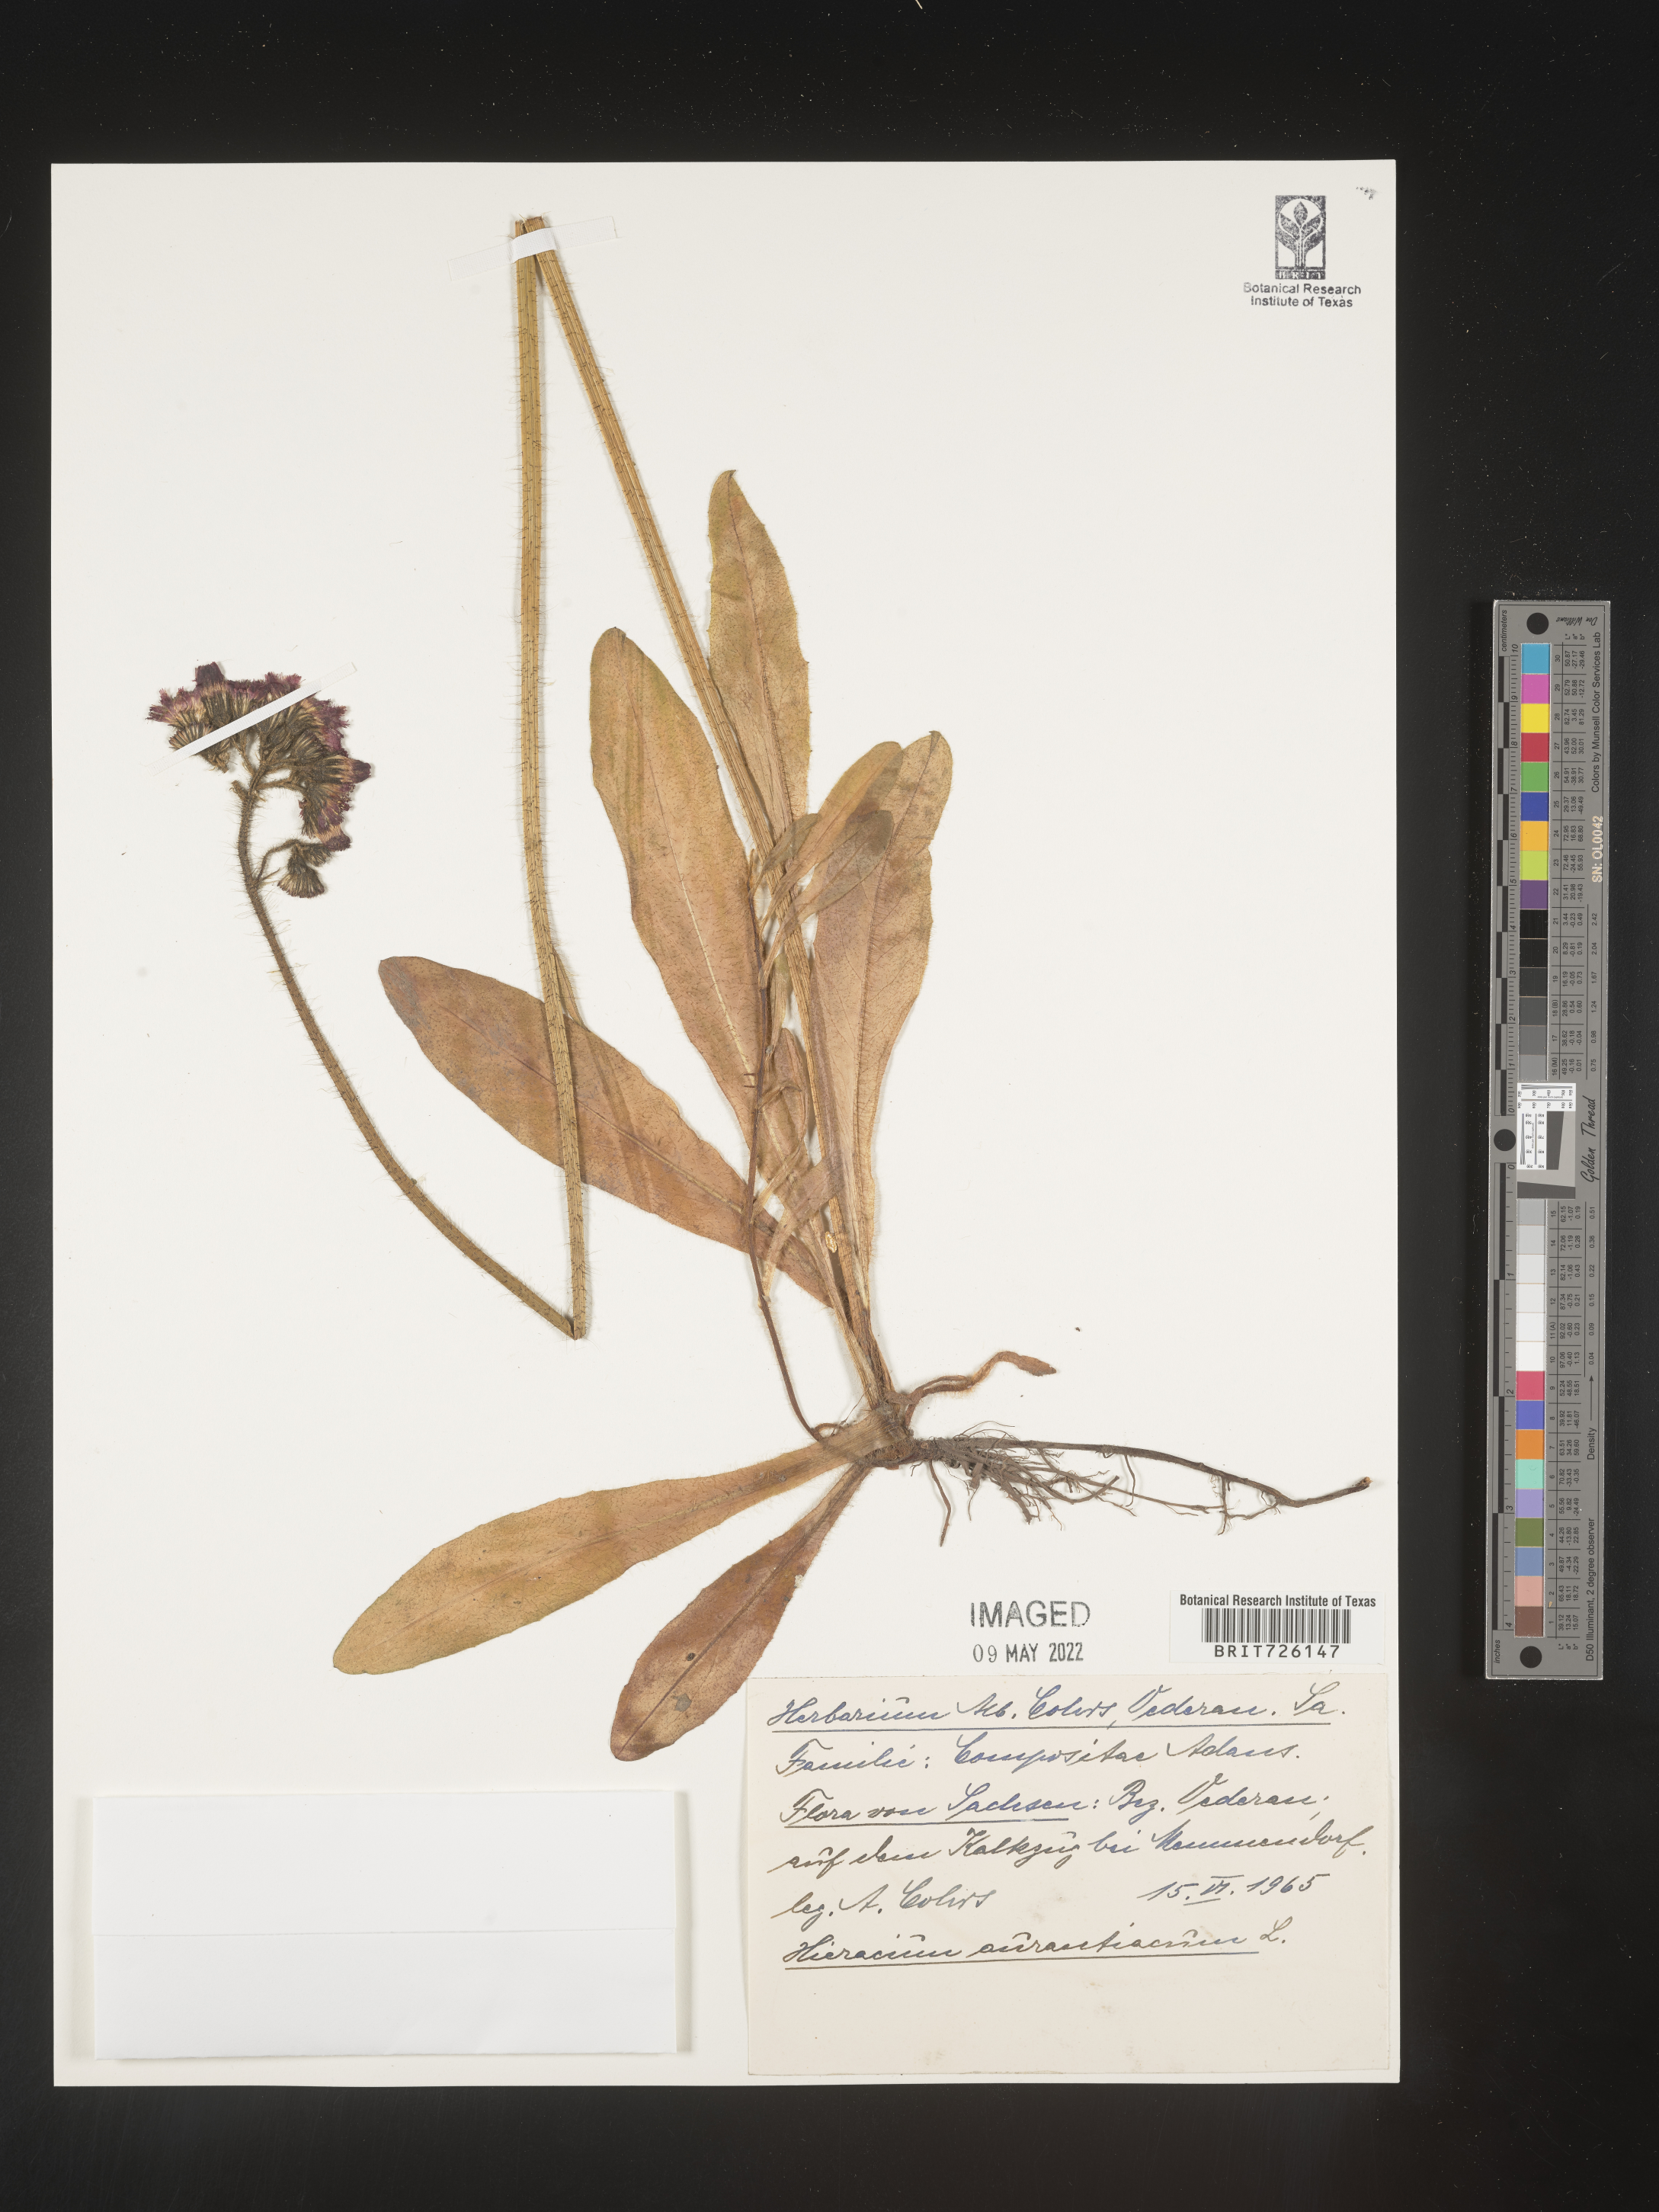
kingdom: Plantae
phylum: Tracheophyta
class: Magnoliopsida
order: Asterales
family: Asteraceae
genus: Hieracium
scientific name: Hieracium
